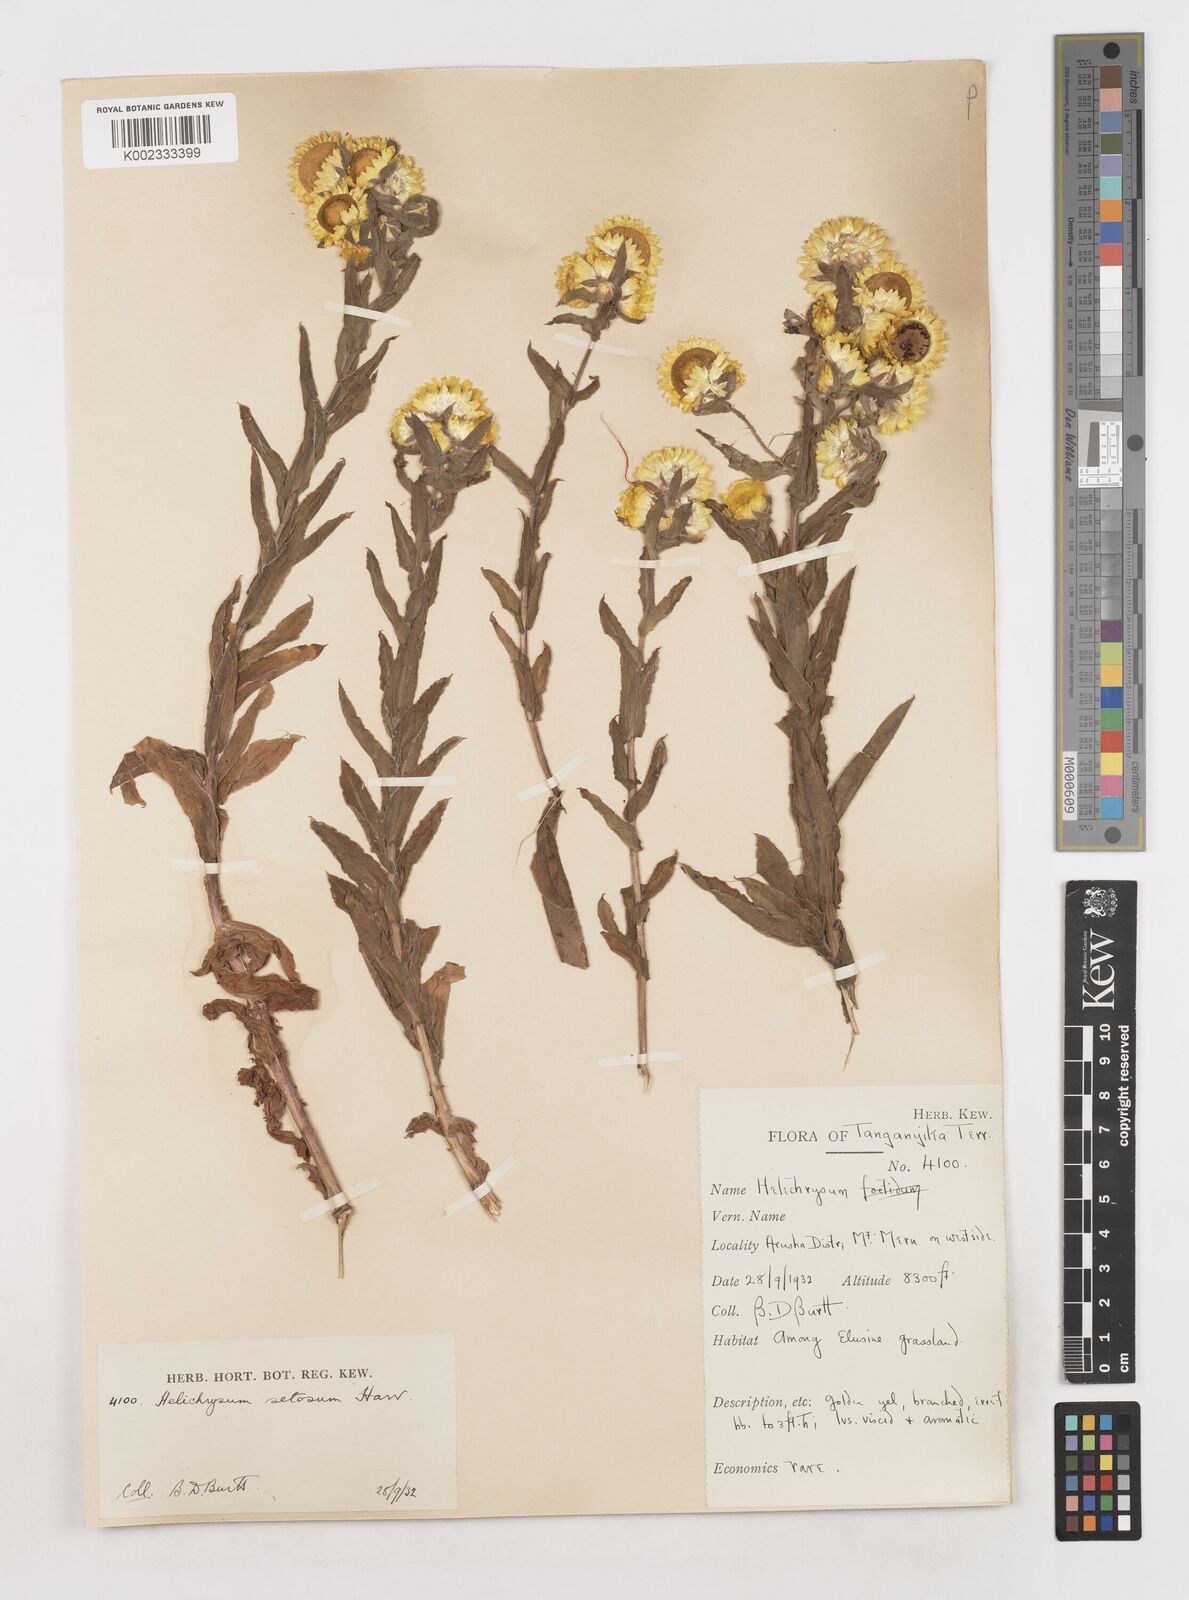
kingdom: Plantae
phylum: Tracheophyta
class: Magnoliopsida
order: Asterales
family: Asteraceae
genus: Helichrysum
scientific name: Helichrysum setosum
